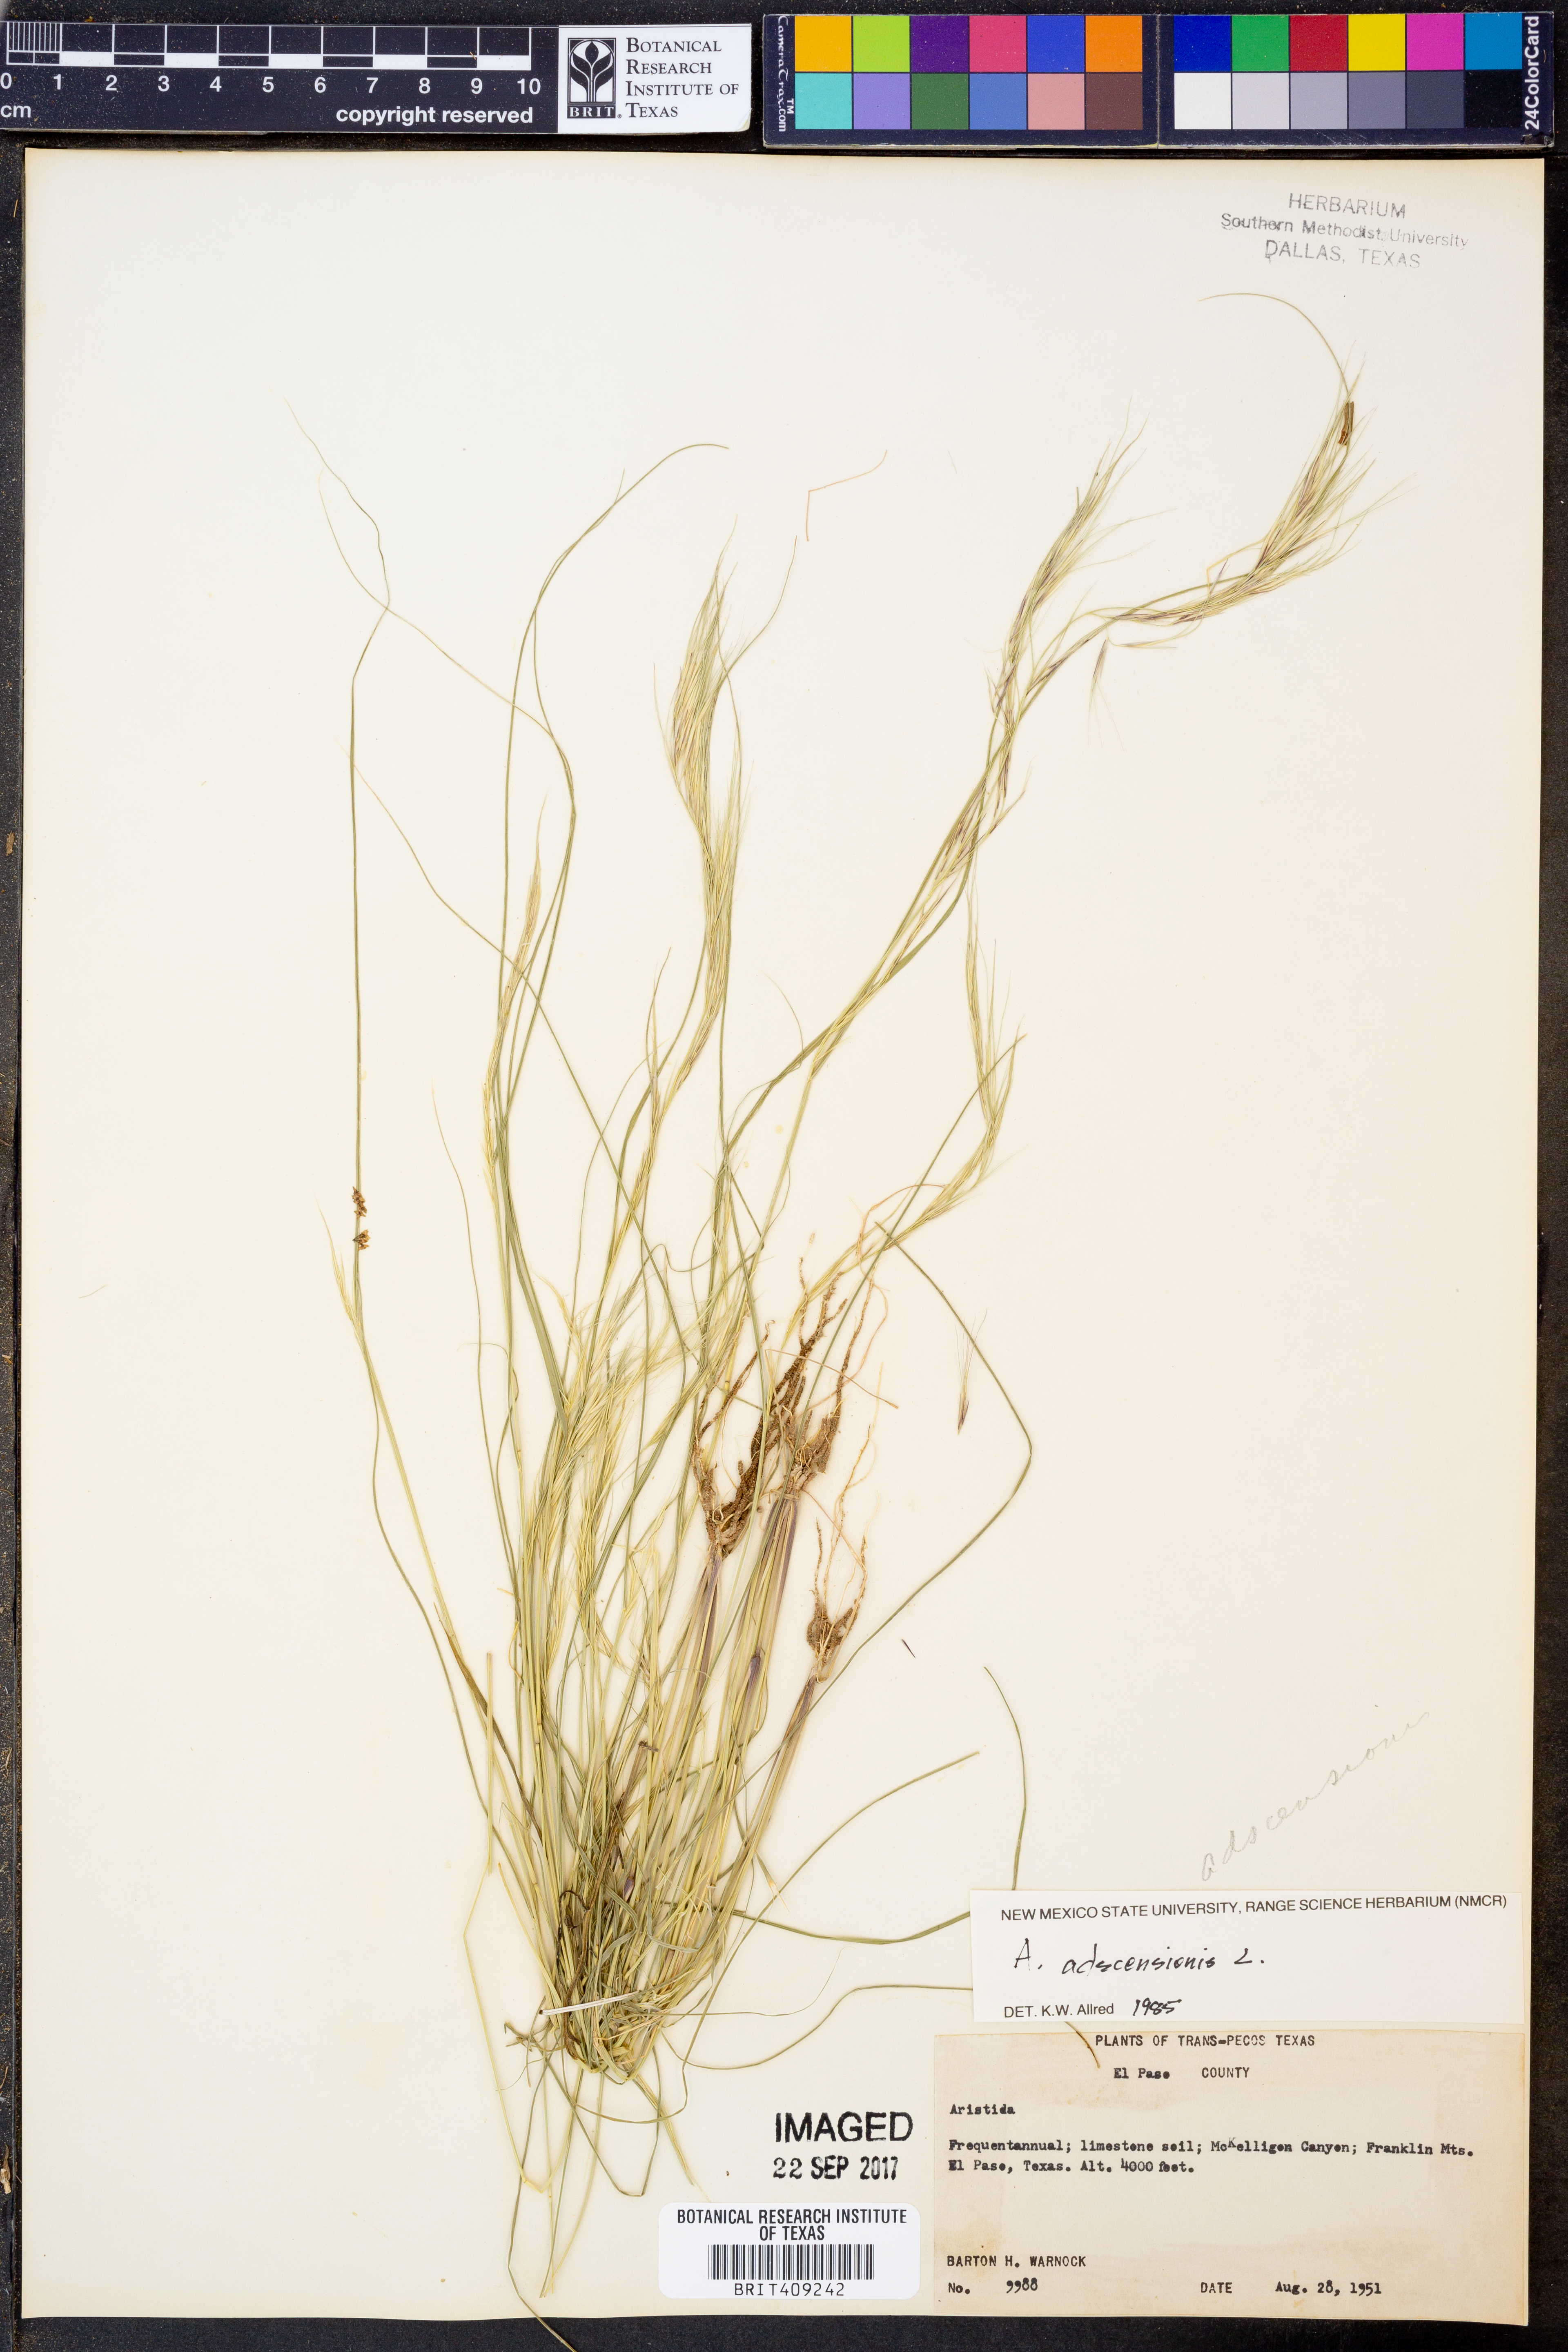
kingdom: Plantae
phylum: Tracheophyta
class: Liliopsida
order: Poales
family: Poaceae
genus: Aristida
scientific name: Aristida adscensionis
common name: Sixweeks threeawn
